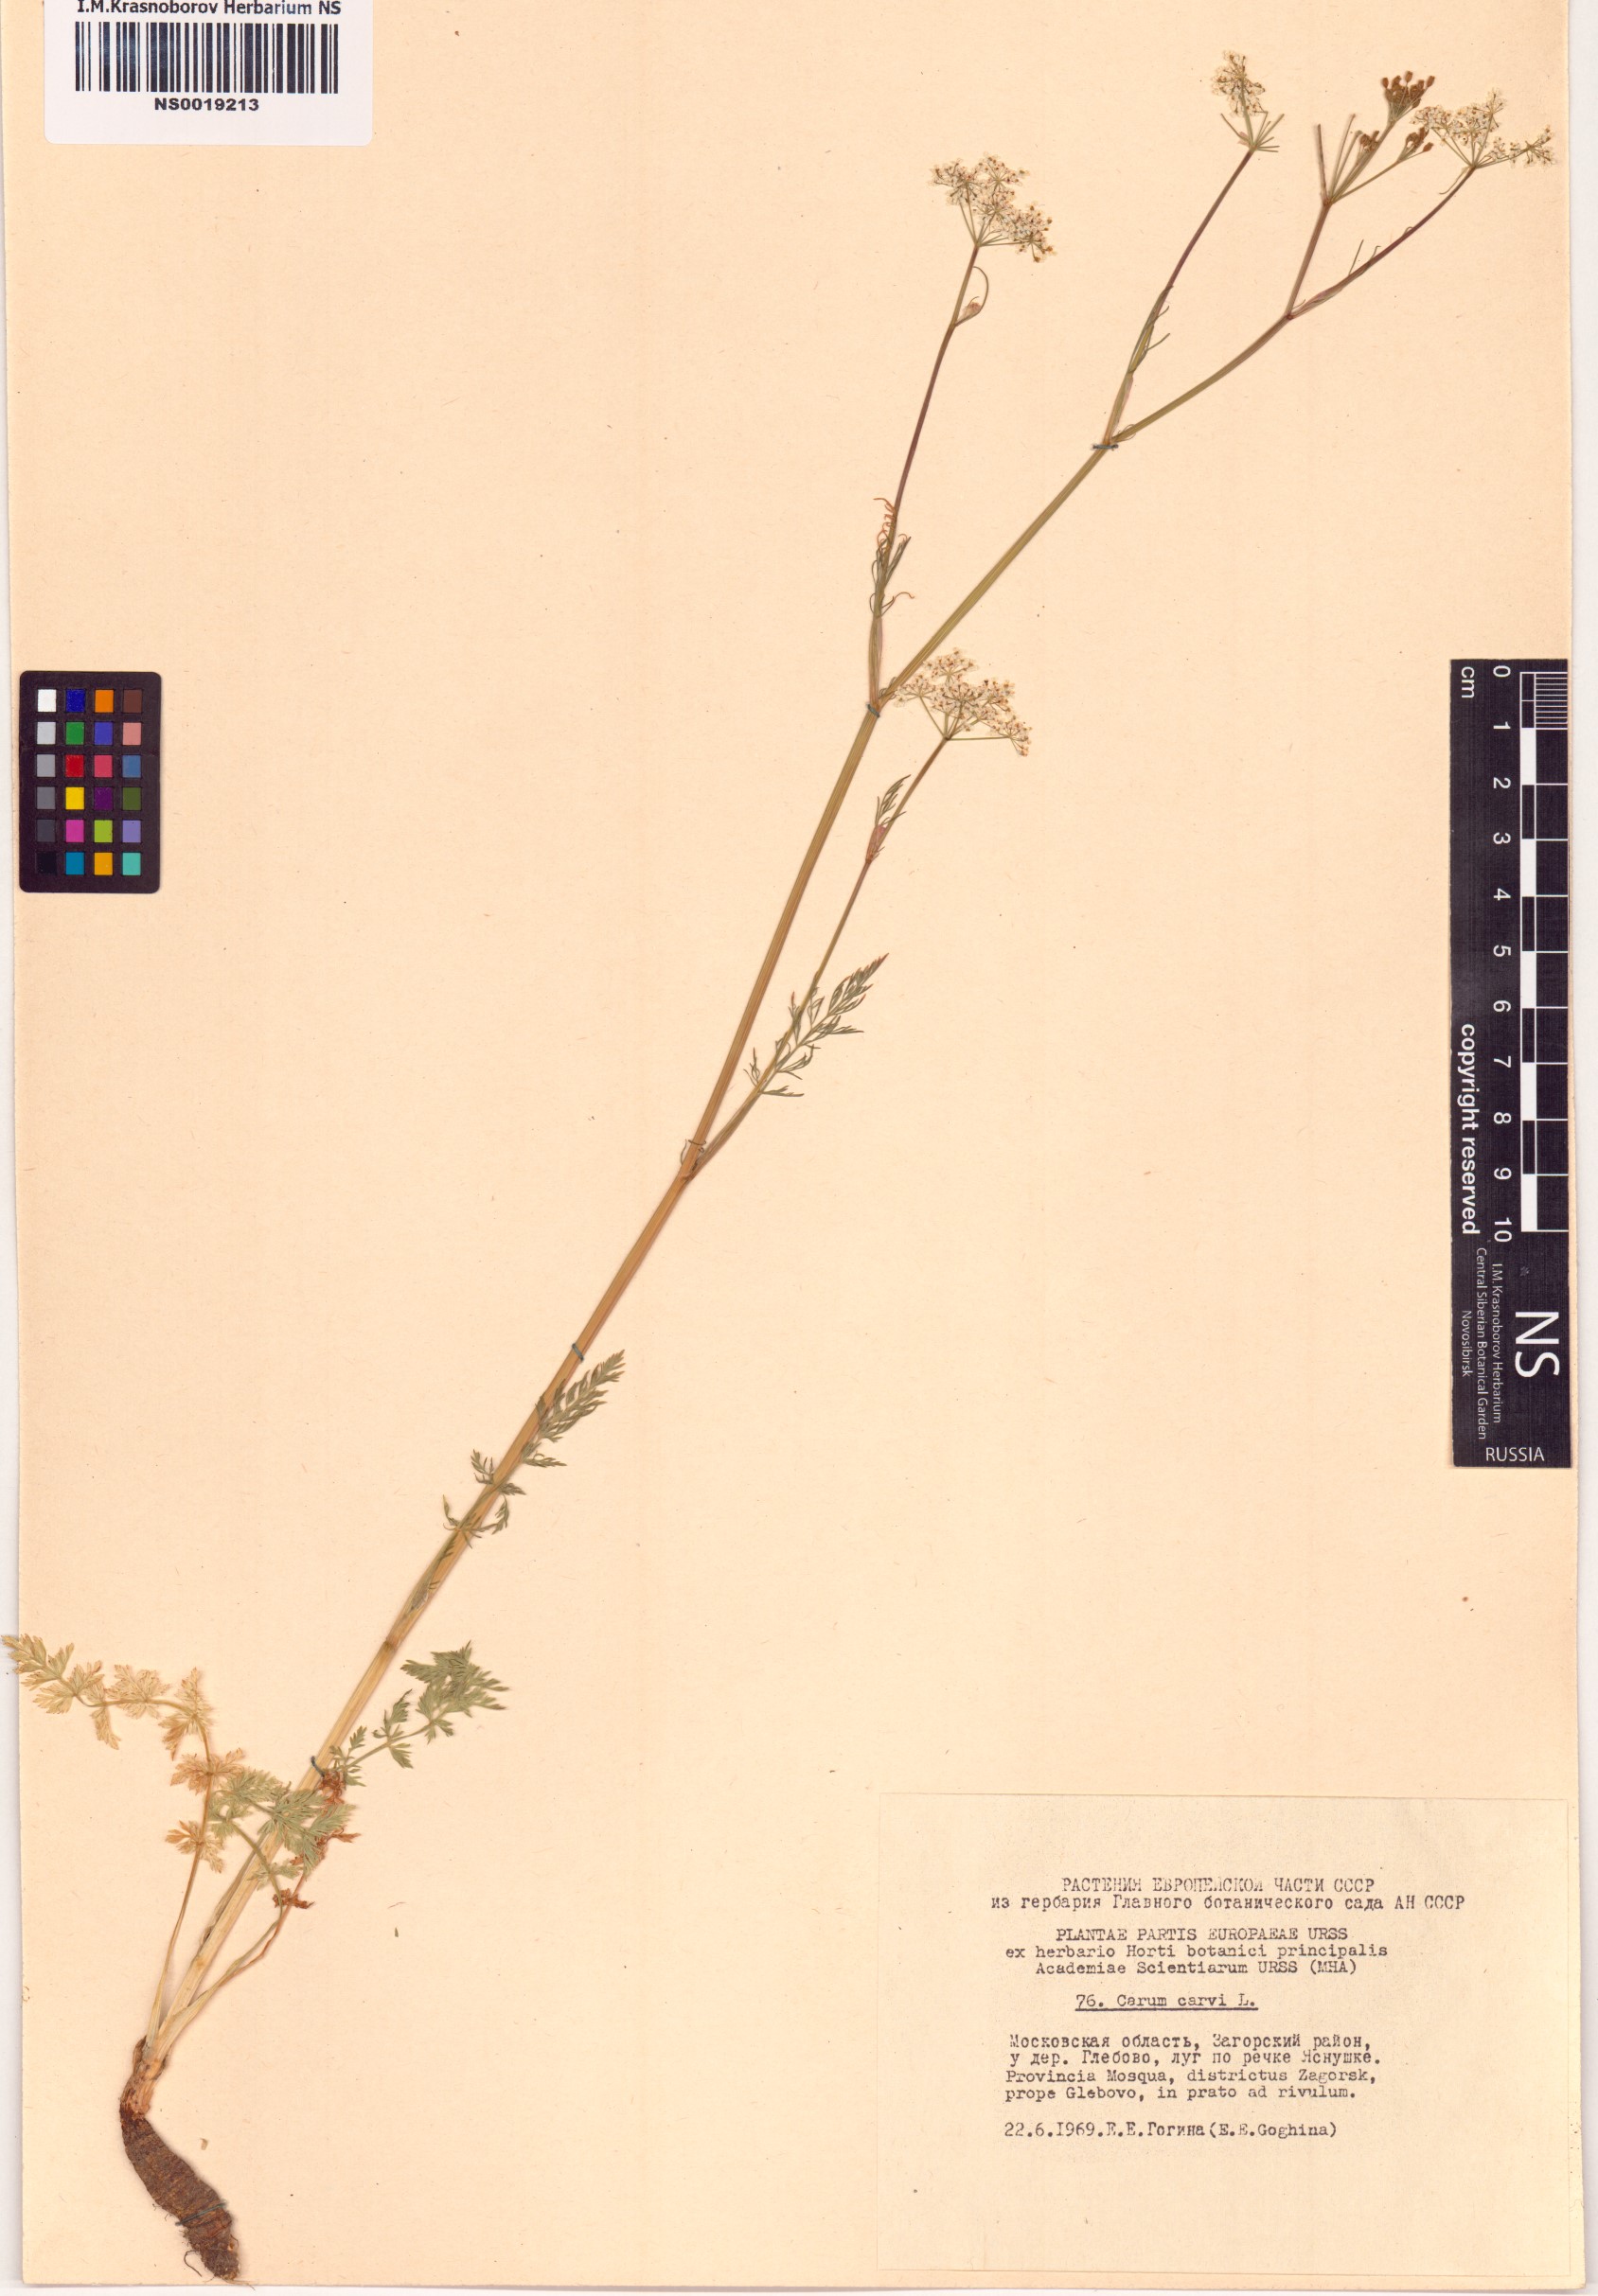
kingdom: Plantae
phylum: Tracheophyta
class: Magnoliopsida
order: Apiales
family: Apiaceae
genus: Carum
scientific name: Carum carvi
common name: Caraway
